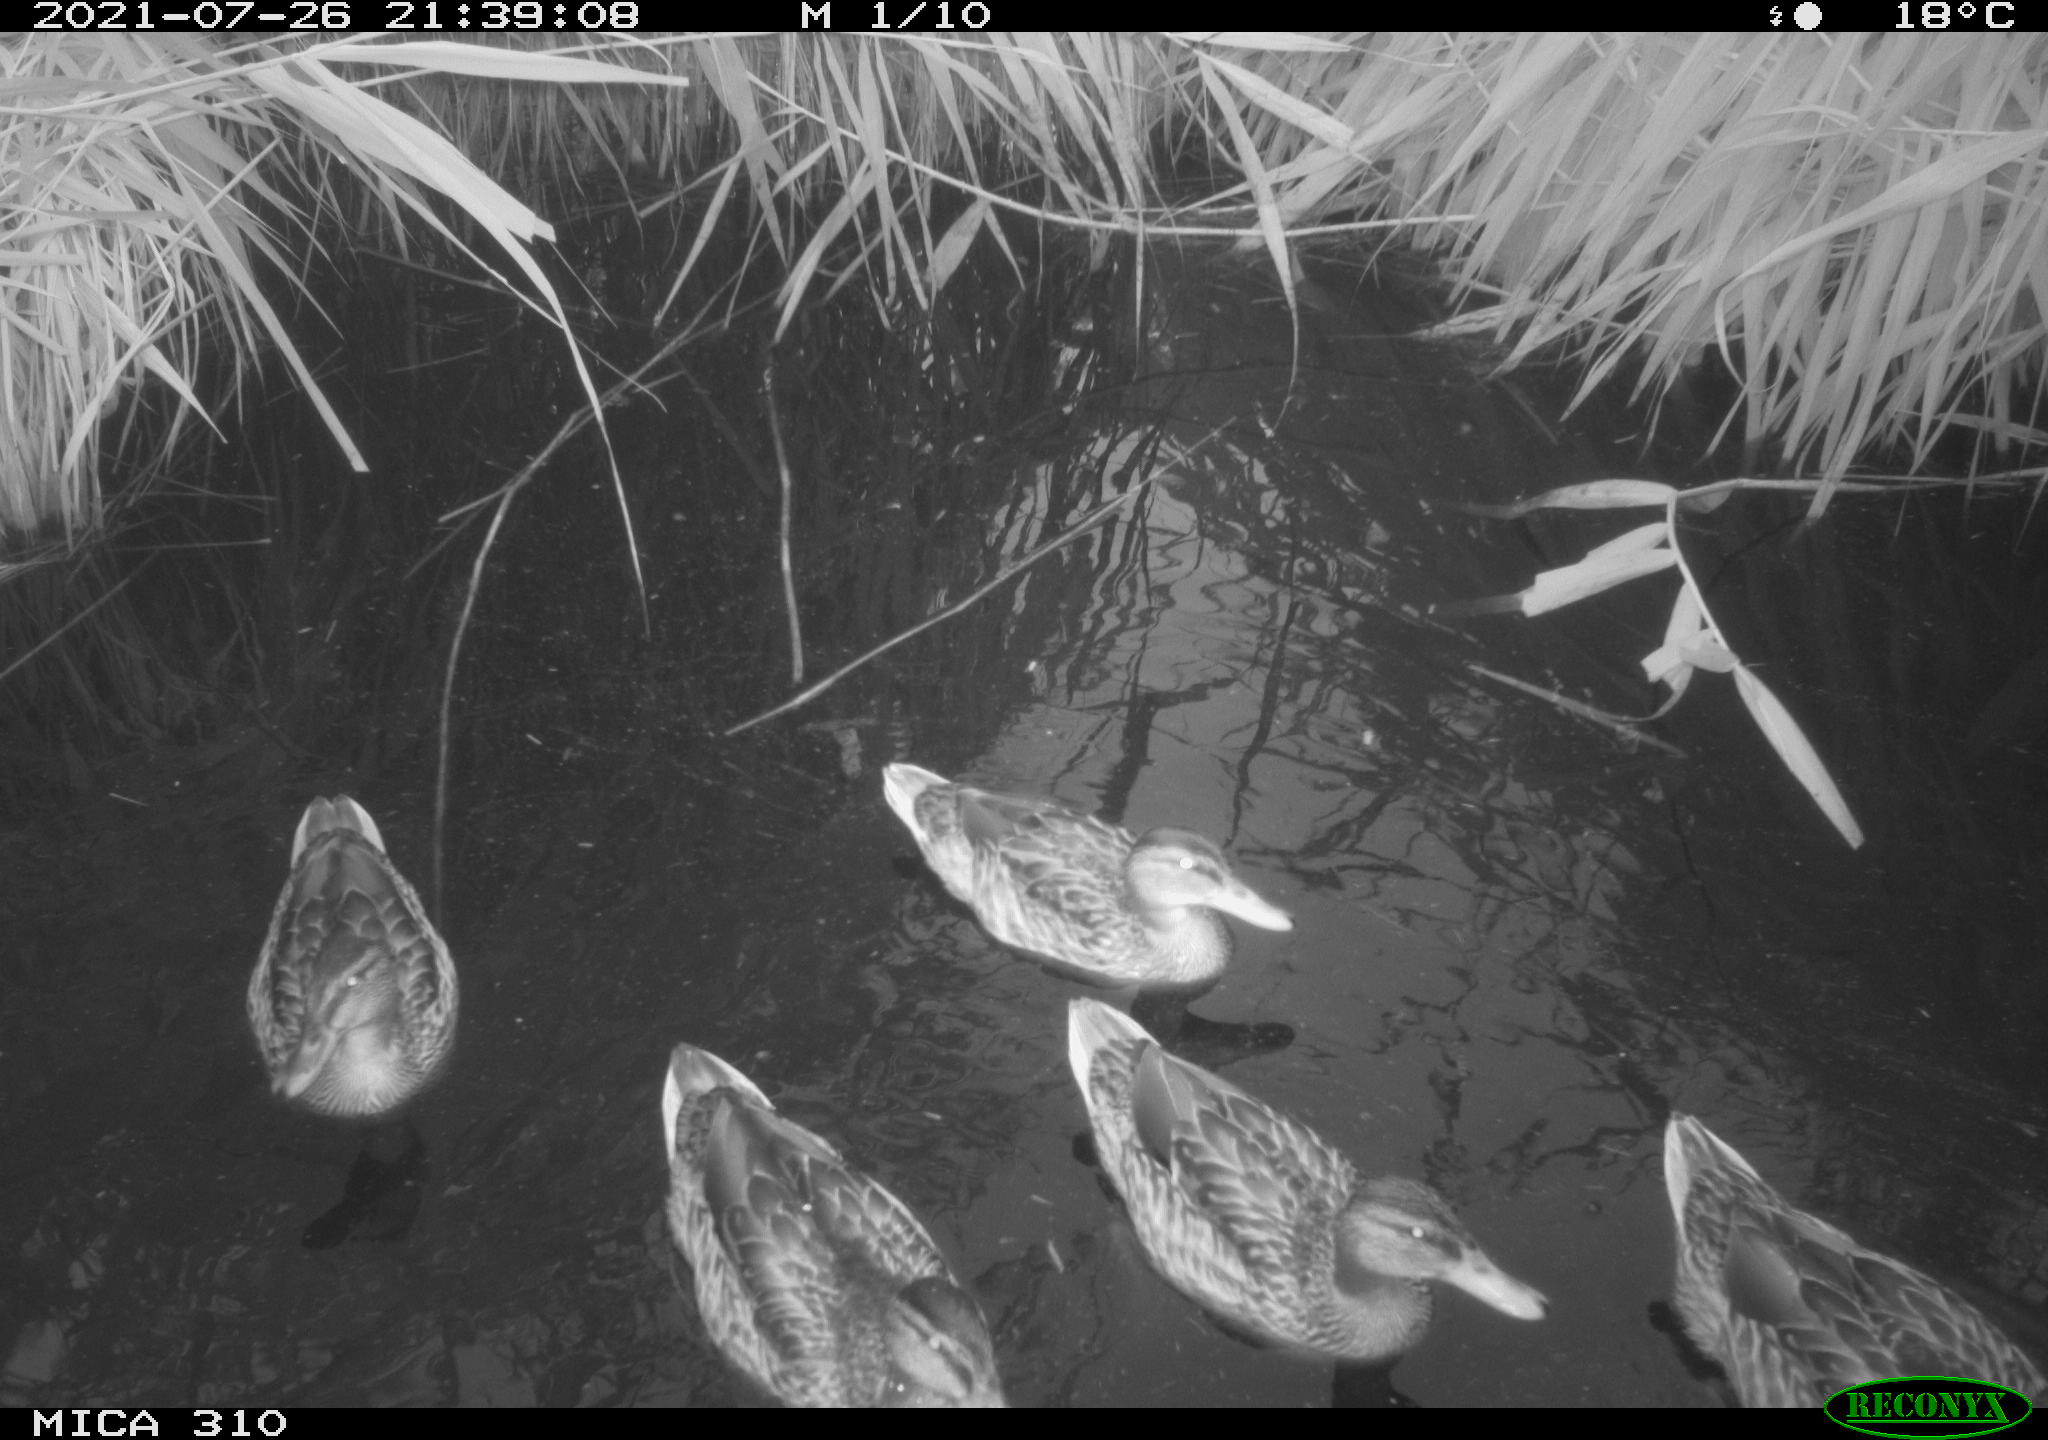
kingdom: Animalia
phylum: Chordata
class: Aves
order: Anseriformes
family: Anatidae
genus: Anas
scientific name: Anas platyrhynchos
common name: Mallard
